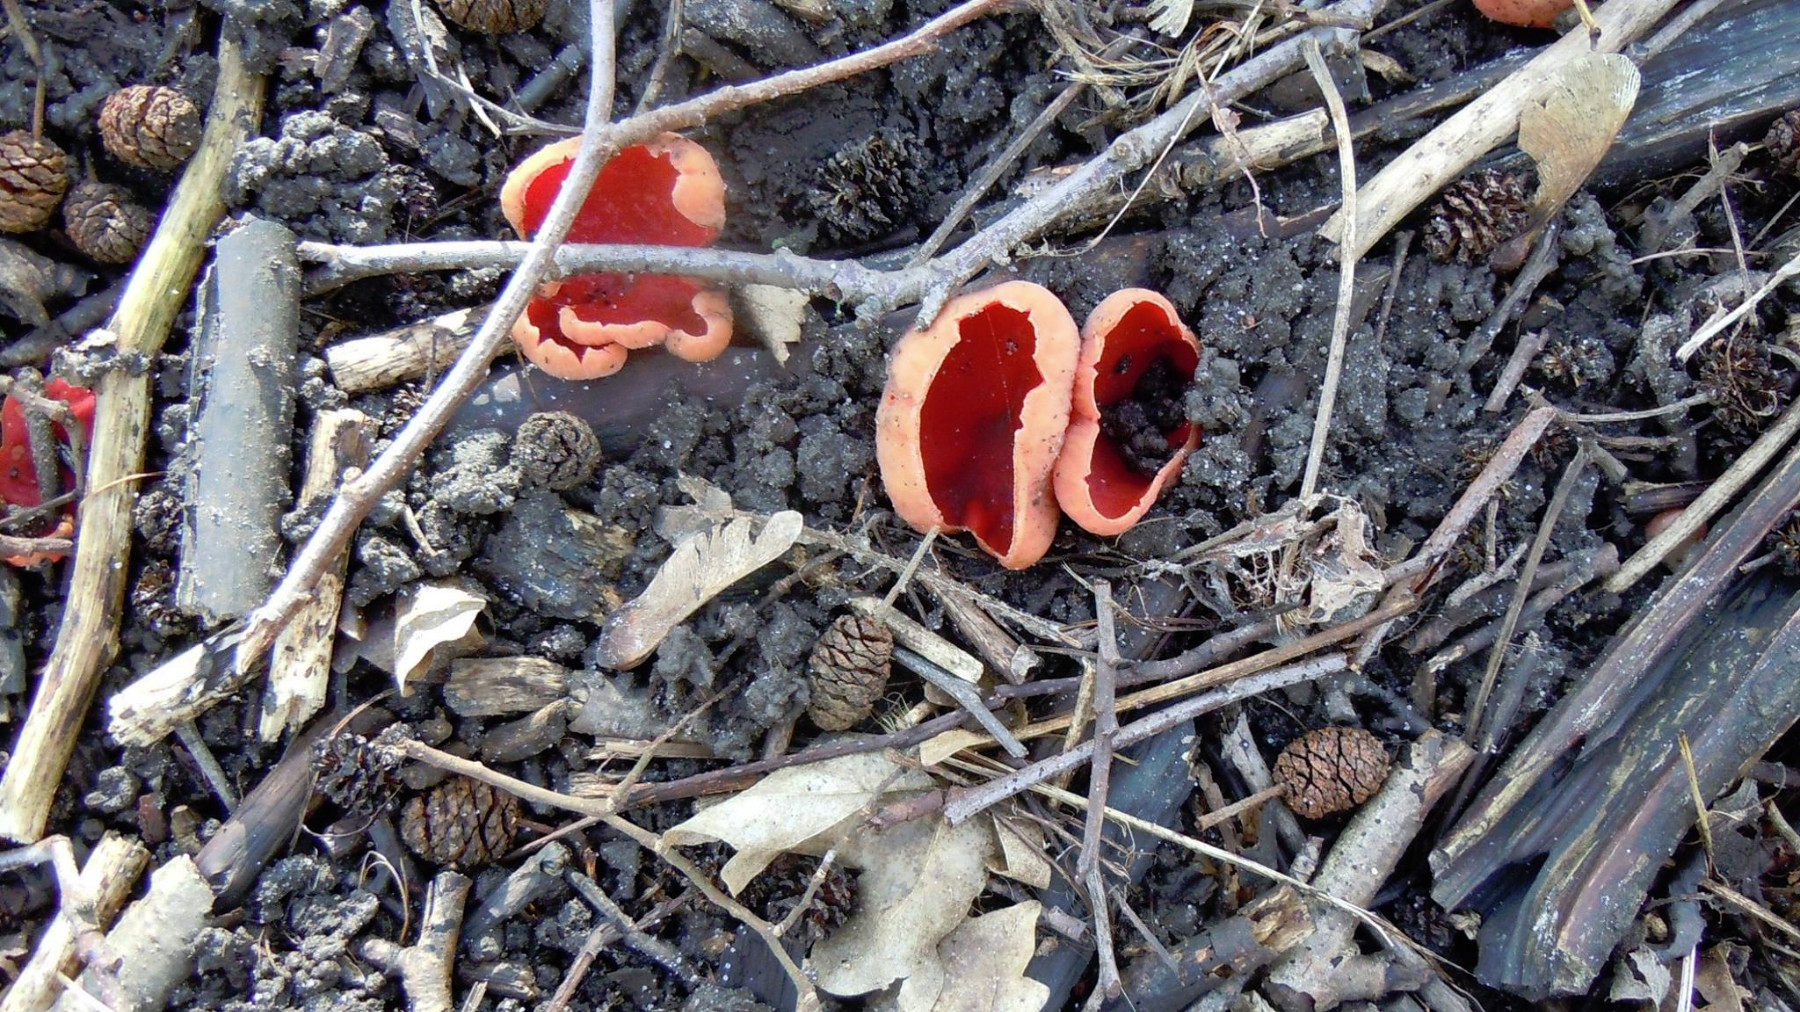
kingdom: Fungi
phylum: Ascomycota
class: Pezizomycetes
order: Pezizales
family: Sarcoscyphaceae
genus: Sarcoscypha
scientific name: Sarcoscypha austriaca
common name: krølhåret pragtbæger
